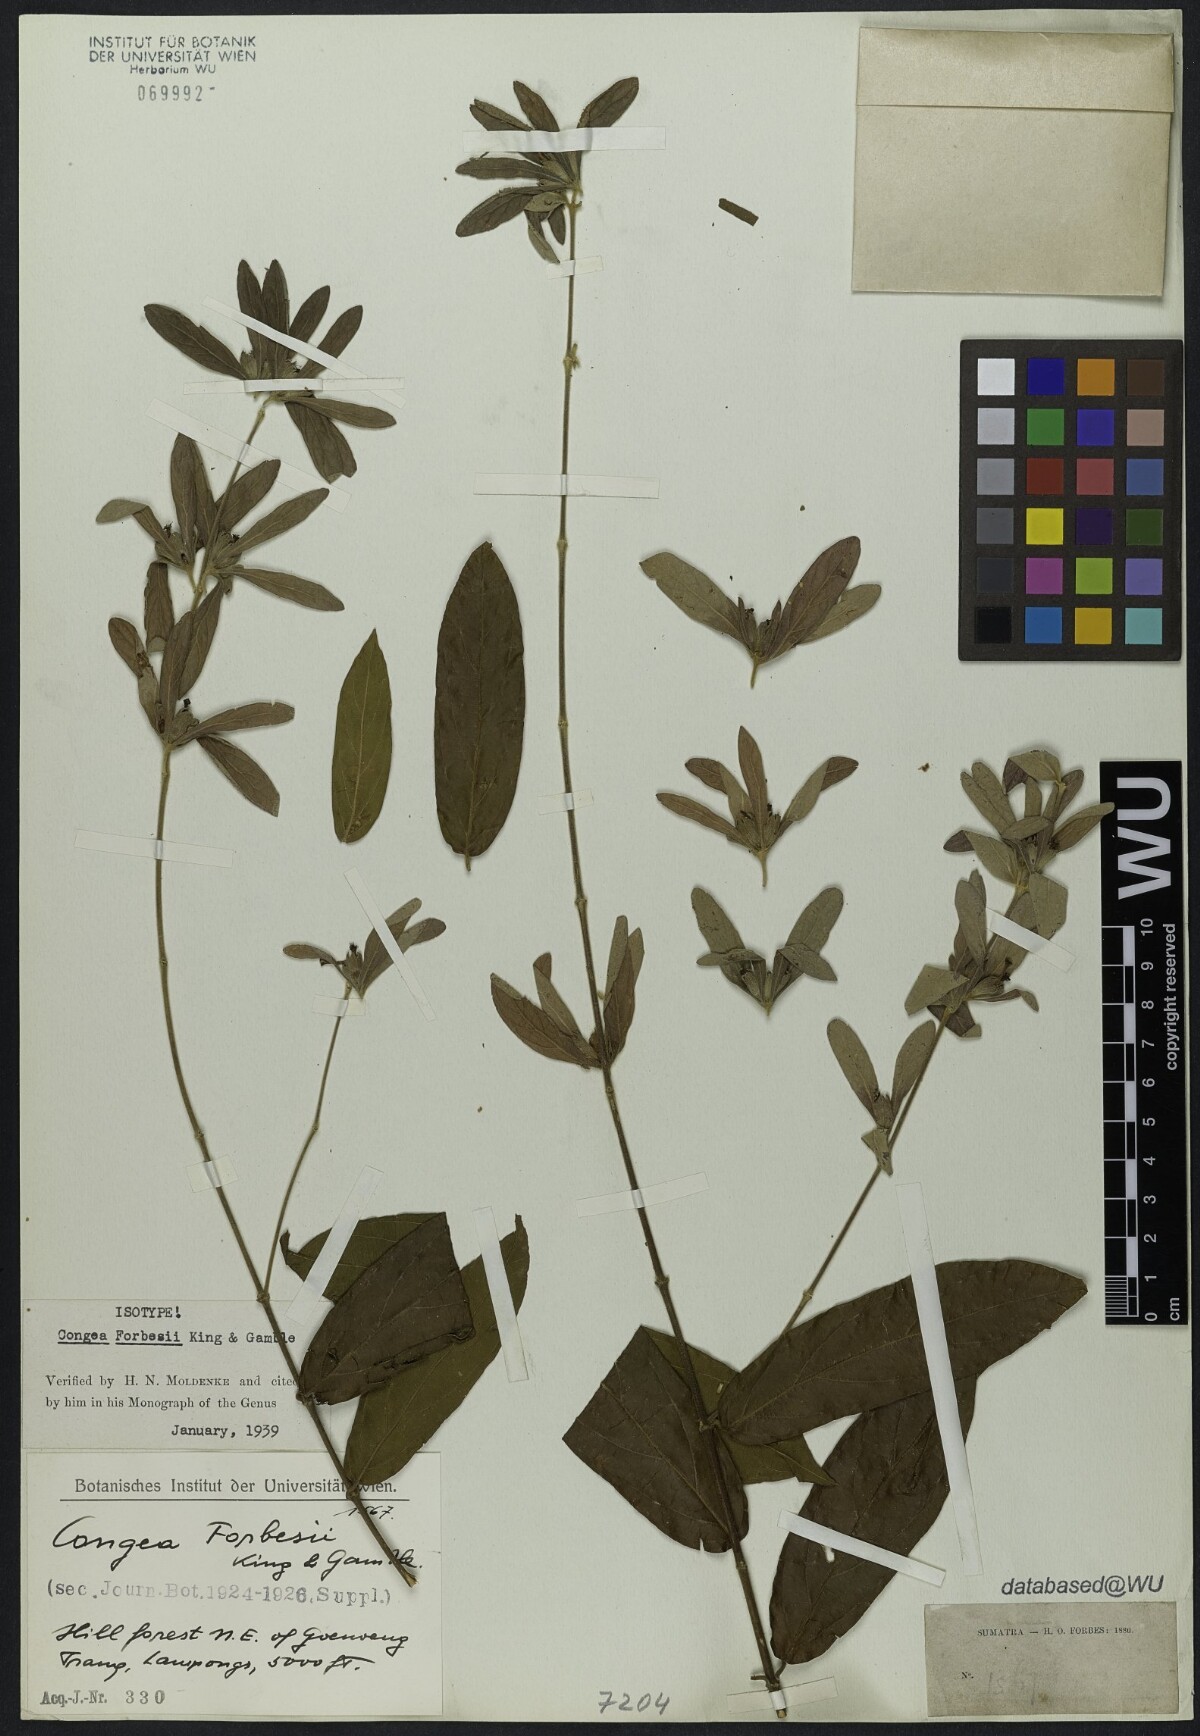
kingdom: Plantae
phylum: Tracheophyta
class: Magnoliopsida
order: Lamiales
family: Lamiaceae
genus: Congea
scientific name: Congea forbesii
